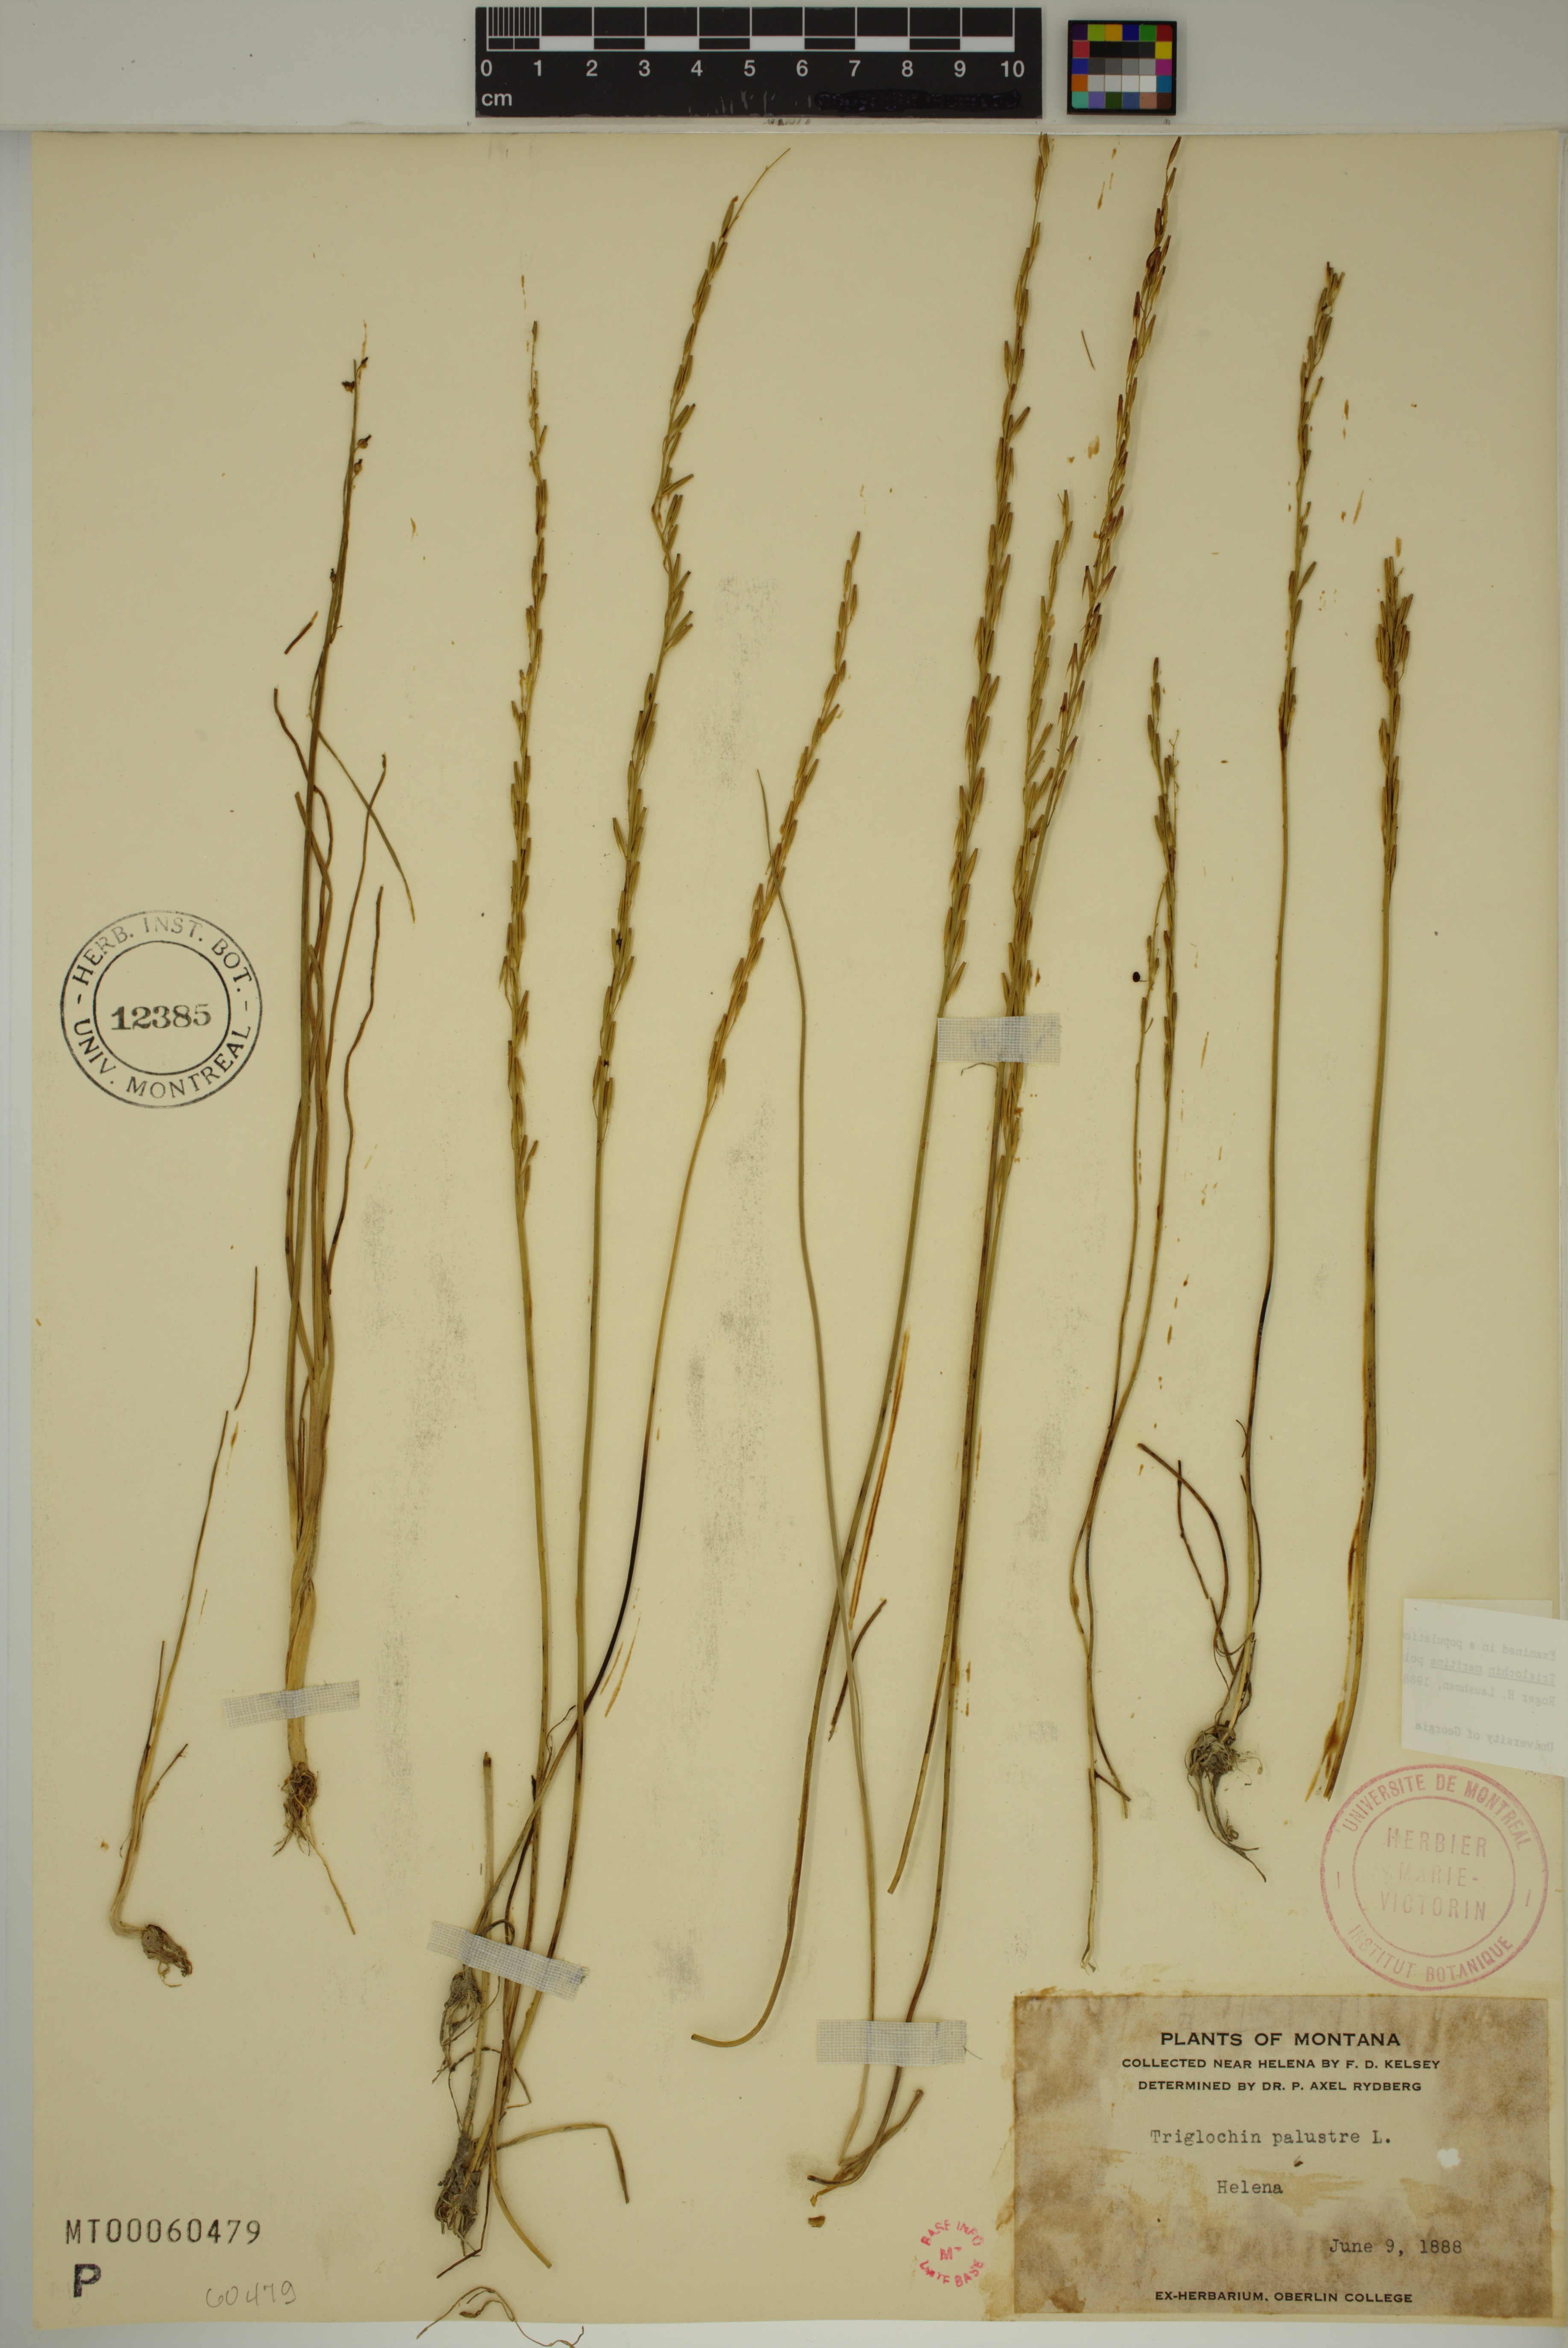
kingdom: Plantae
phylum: Tracheophyta
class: Liliopsida
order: Alismatales
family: Juncaginaceae
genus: Triglochin
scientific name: Triglochin palustris
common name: Marsh arrowgrass
